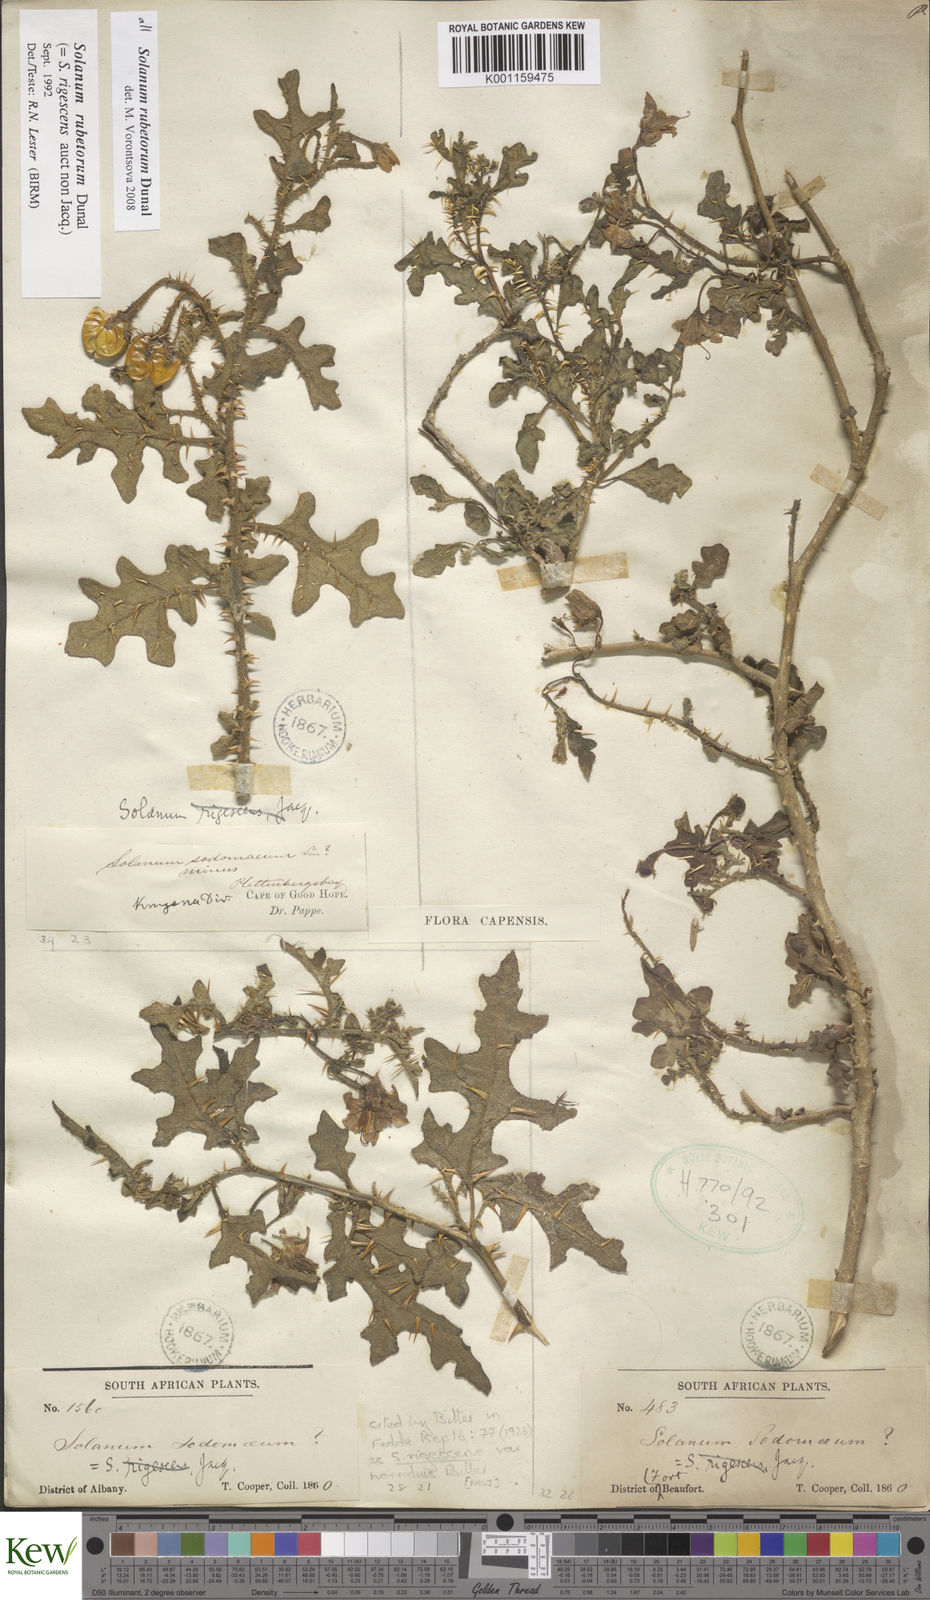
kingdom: Plantae
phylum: Tracheophyta
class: Magnoliopsida
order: Solanales
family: Solanaceae
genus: Solanum
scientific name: Solanum rubetorum
